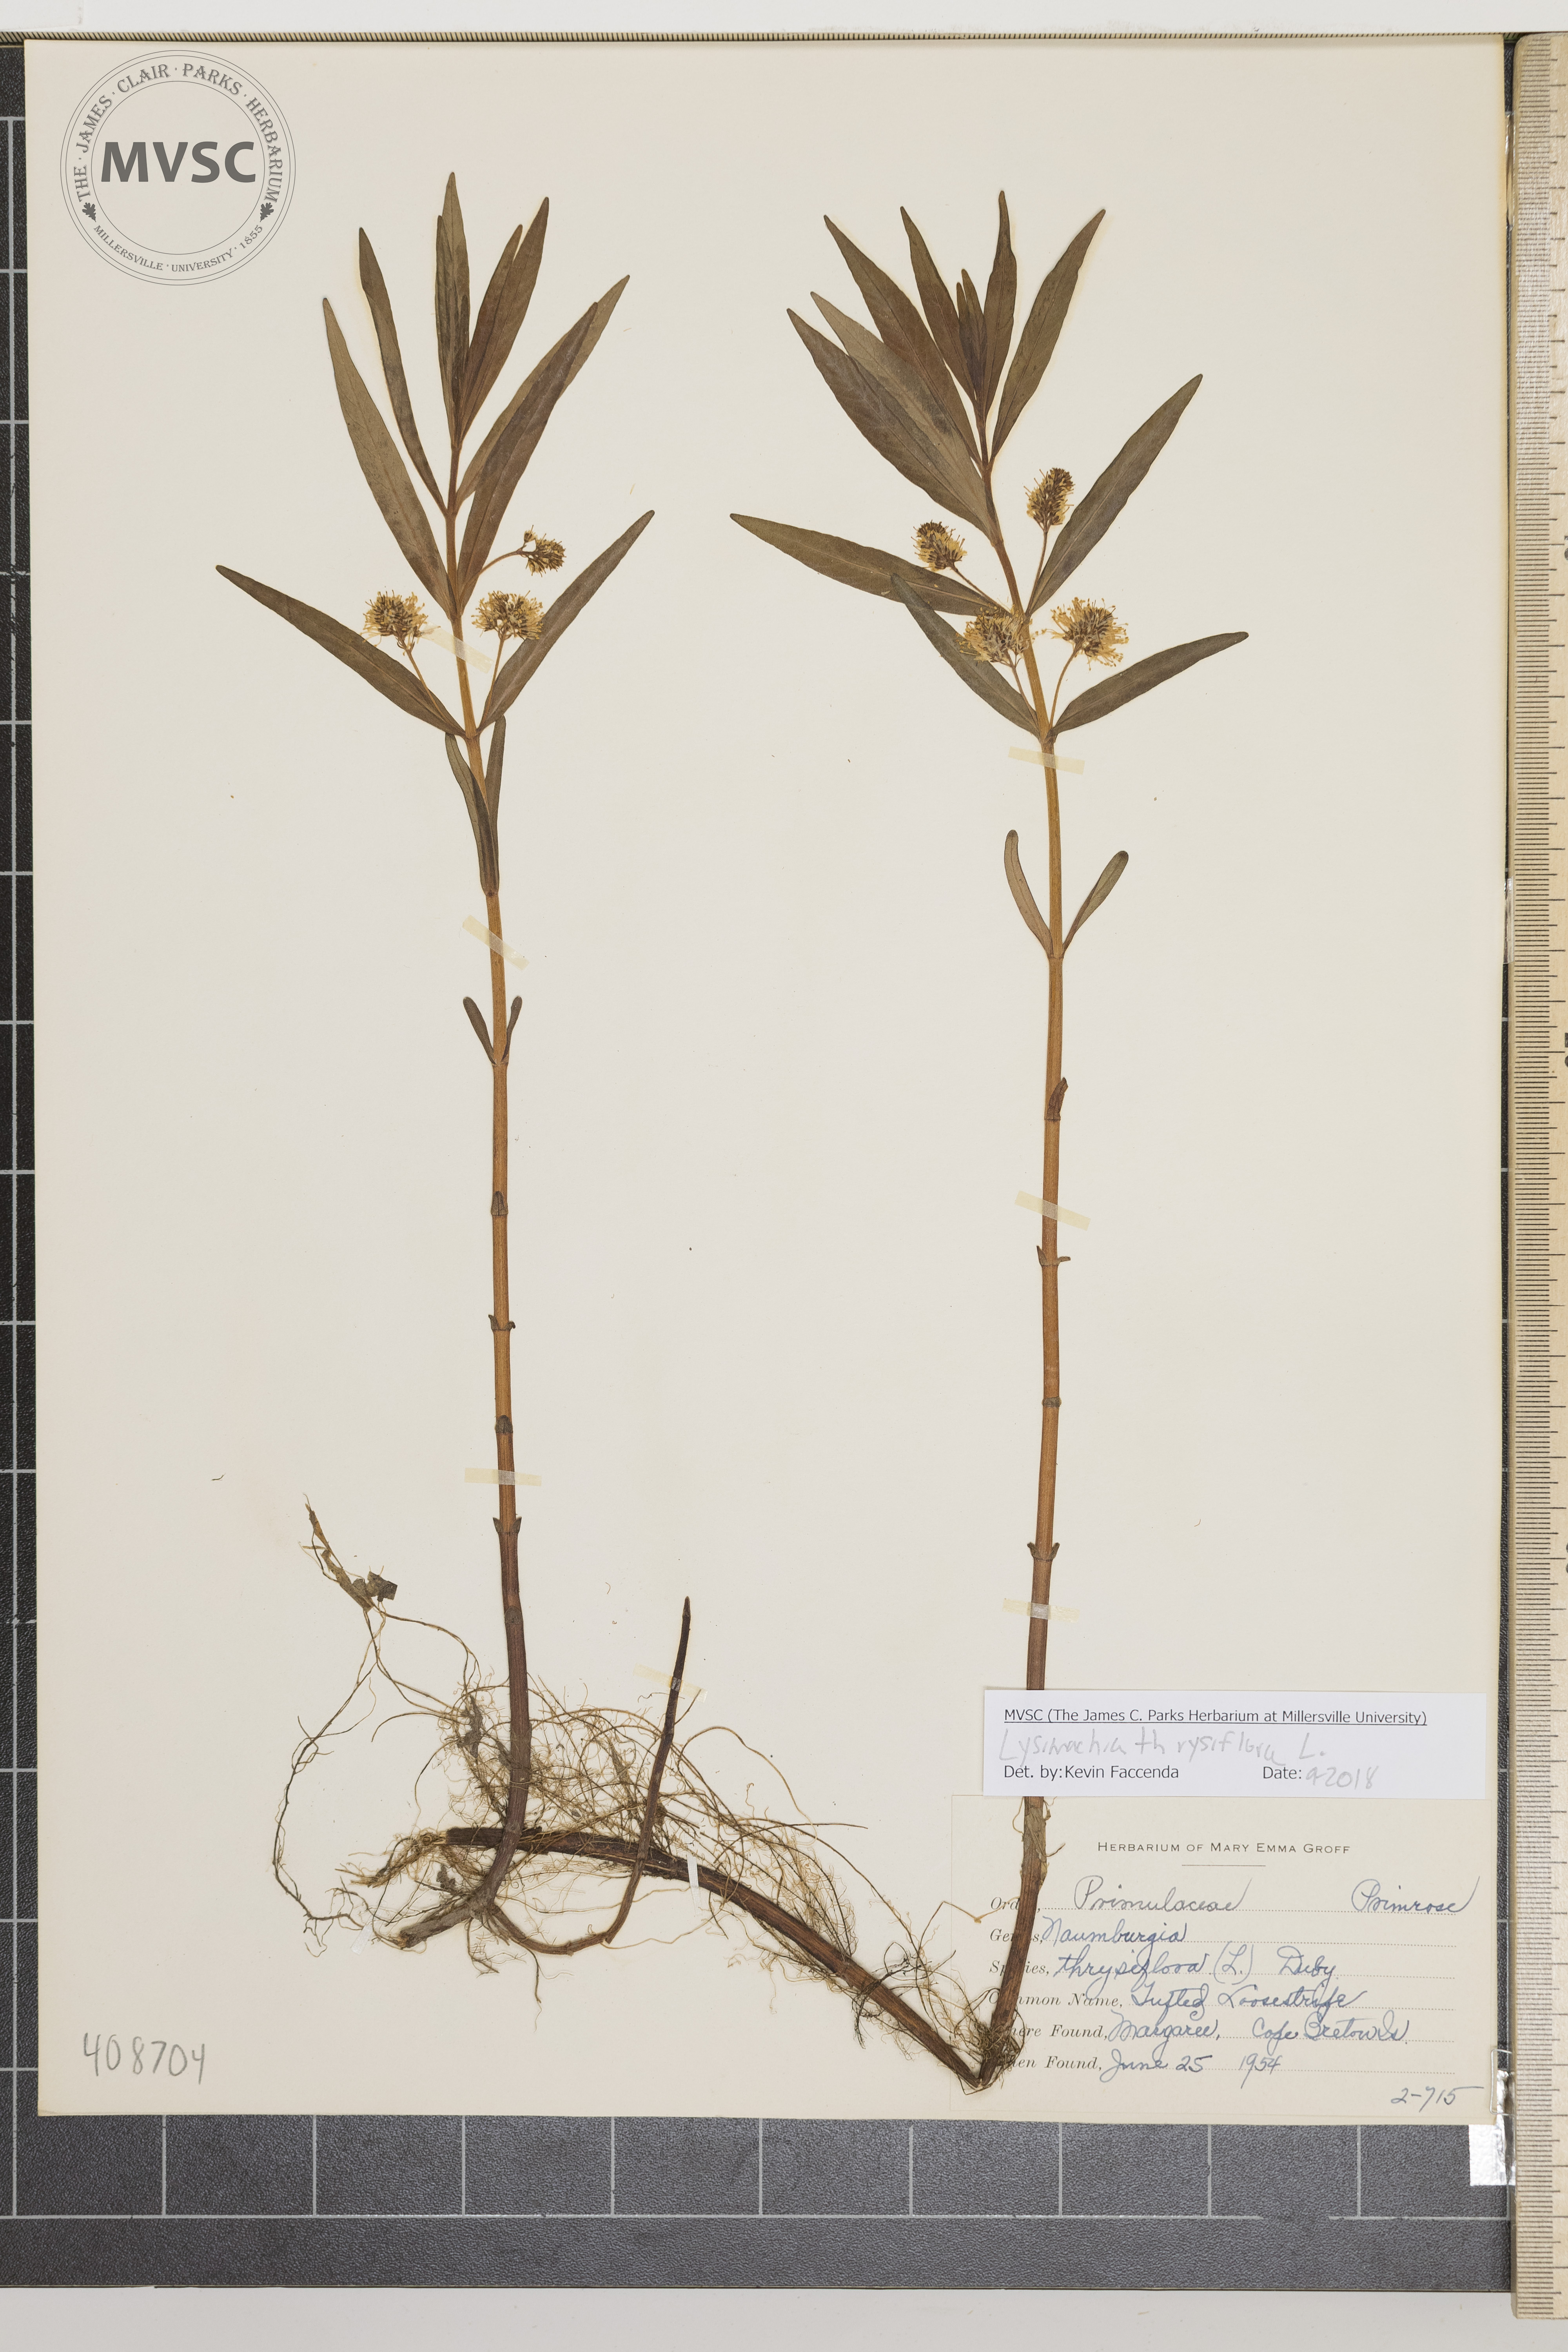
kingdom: Plantae
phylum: Tracheophyta
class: Magnoliopsida
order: Ericales
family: Primulaceae
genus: Lysimachia
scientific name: Lysimachia thyrsiflora
